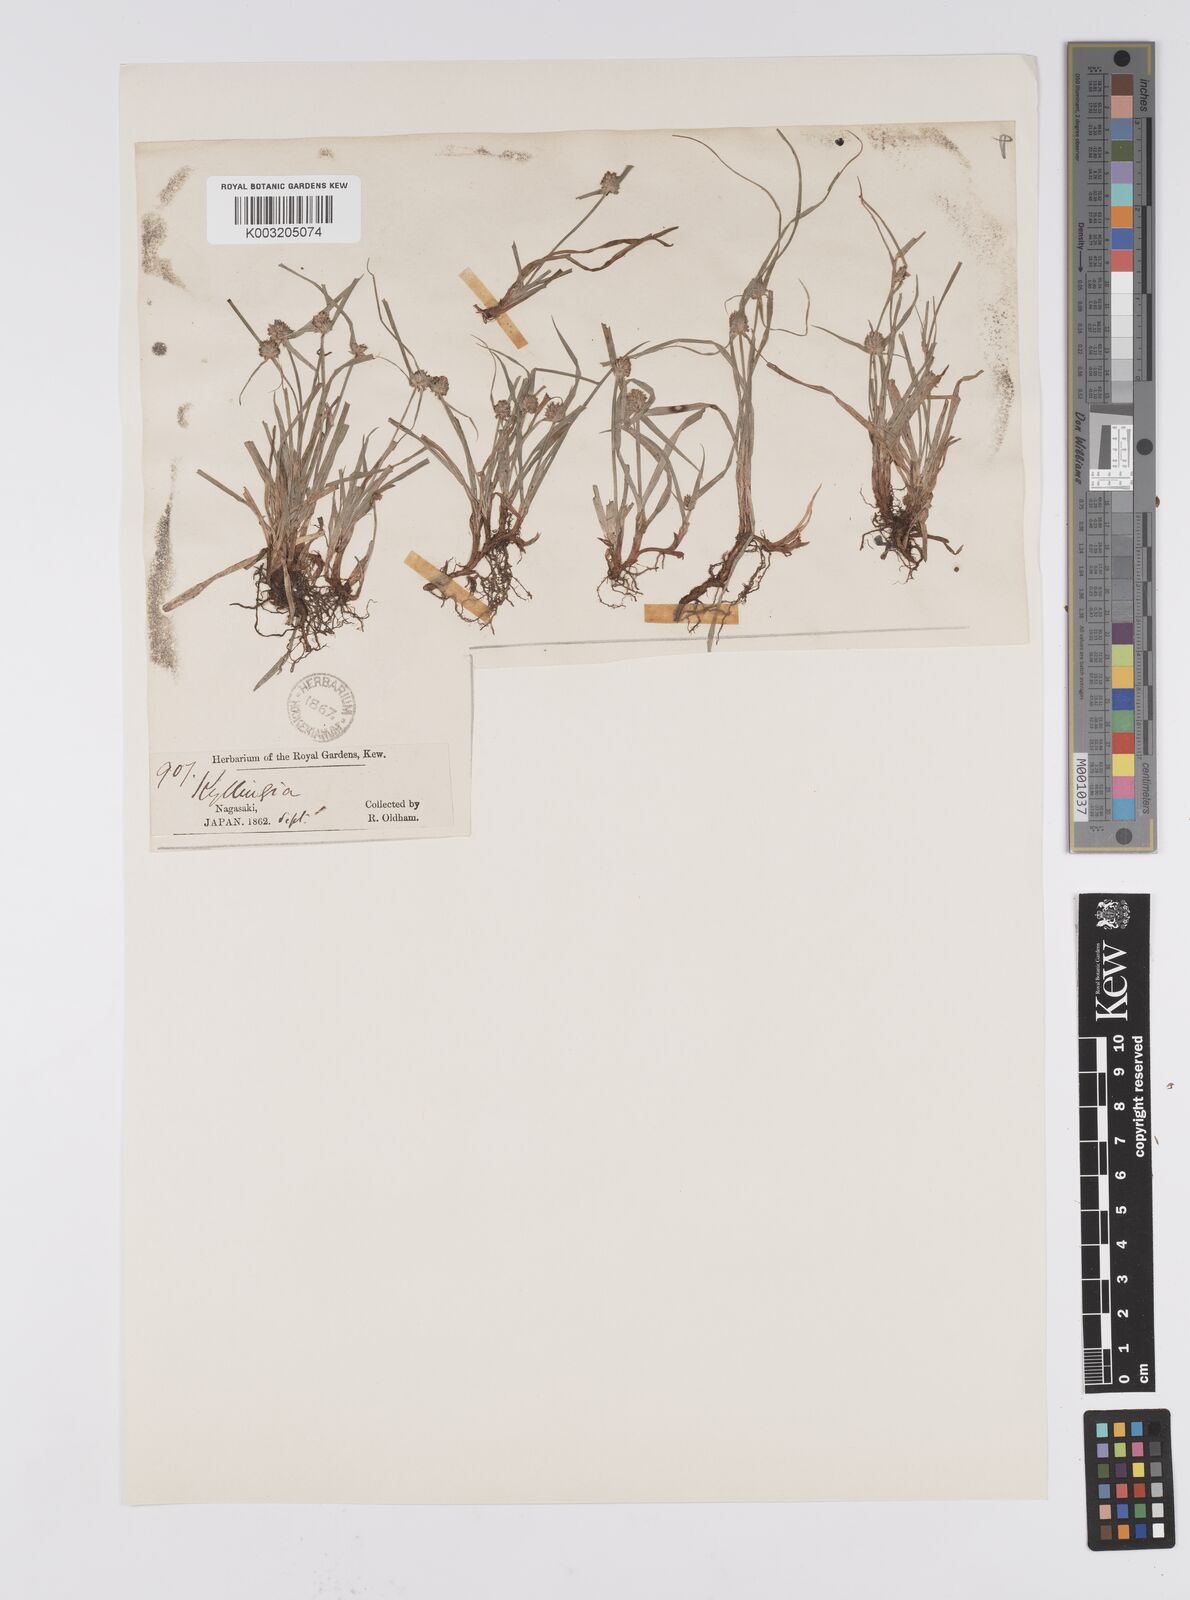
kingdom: Plantae
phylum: Tracheophyta
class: Liliopsida
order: Poales
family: Cyperaceae
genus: Cyperus
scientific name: Cyperus brevifolius
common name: Globe kyllinga
